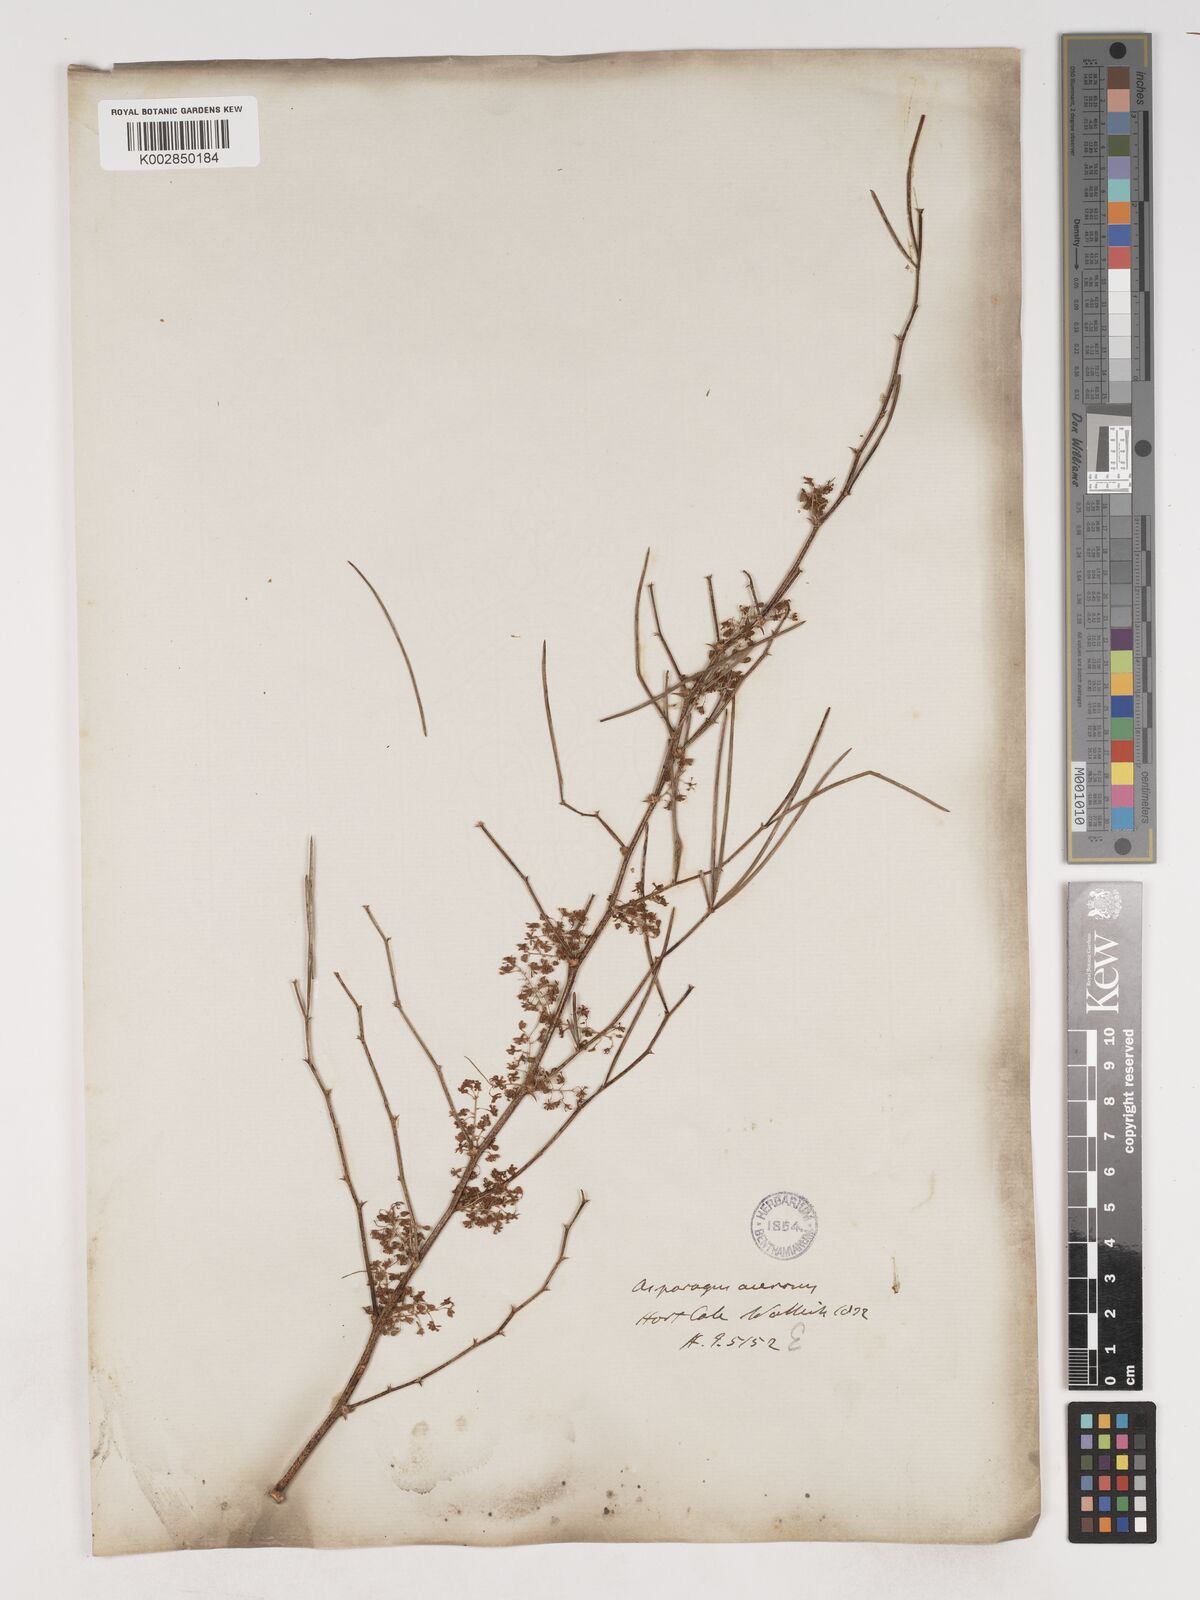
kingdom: Plantae
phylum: Tracheophyta
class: Liliopsida
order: Asparagales
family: Asparagaceae
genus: Asparagus
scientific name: Asparagus racemosus
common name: Asparagus-fern
